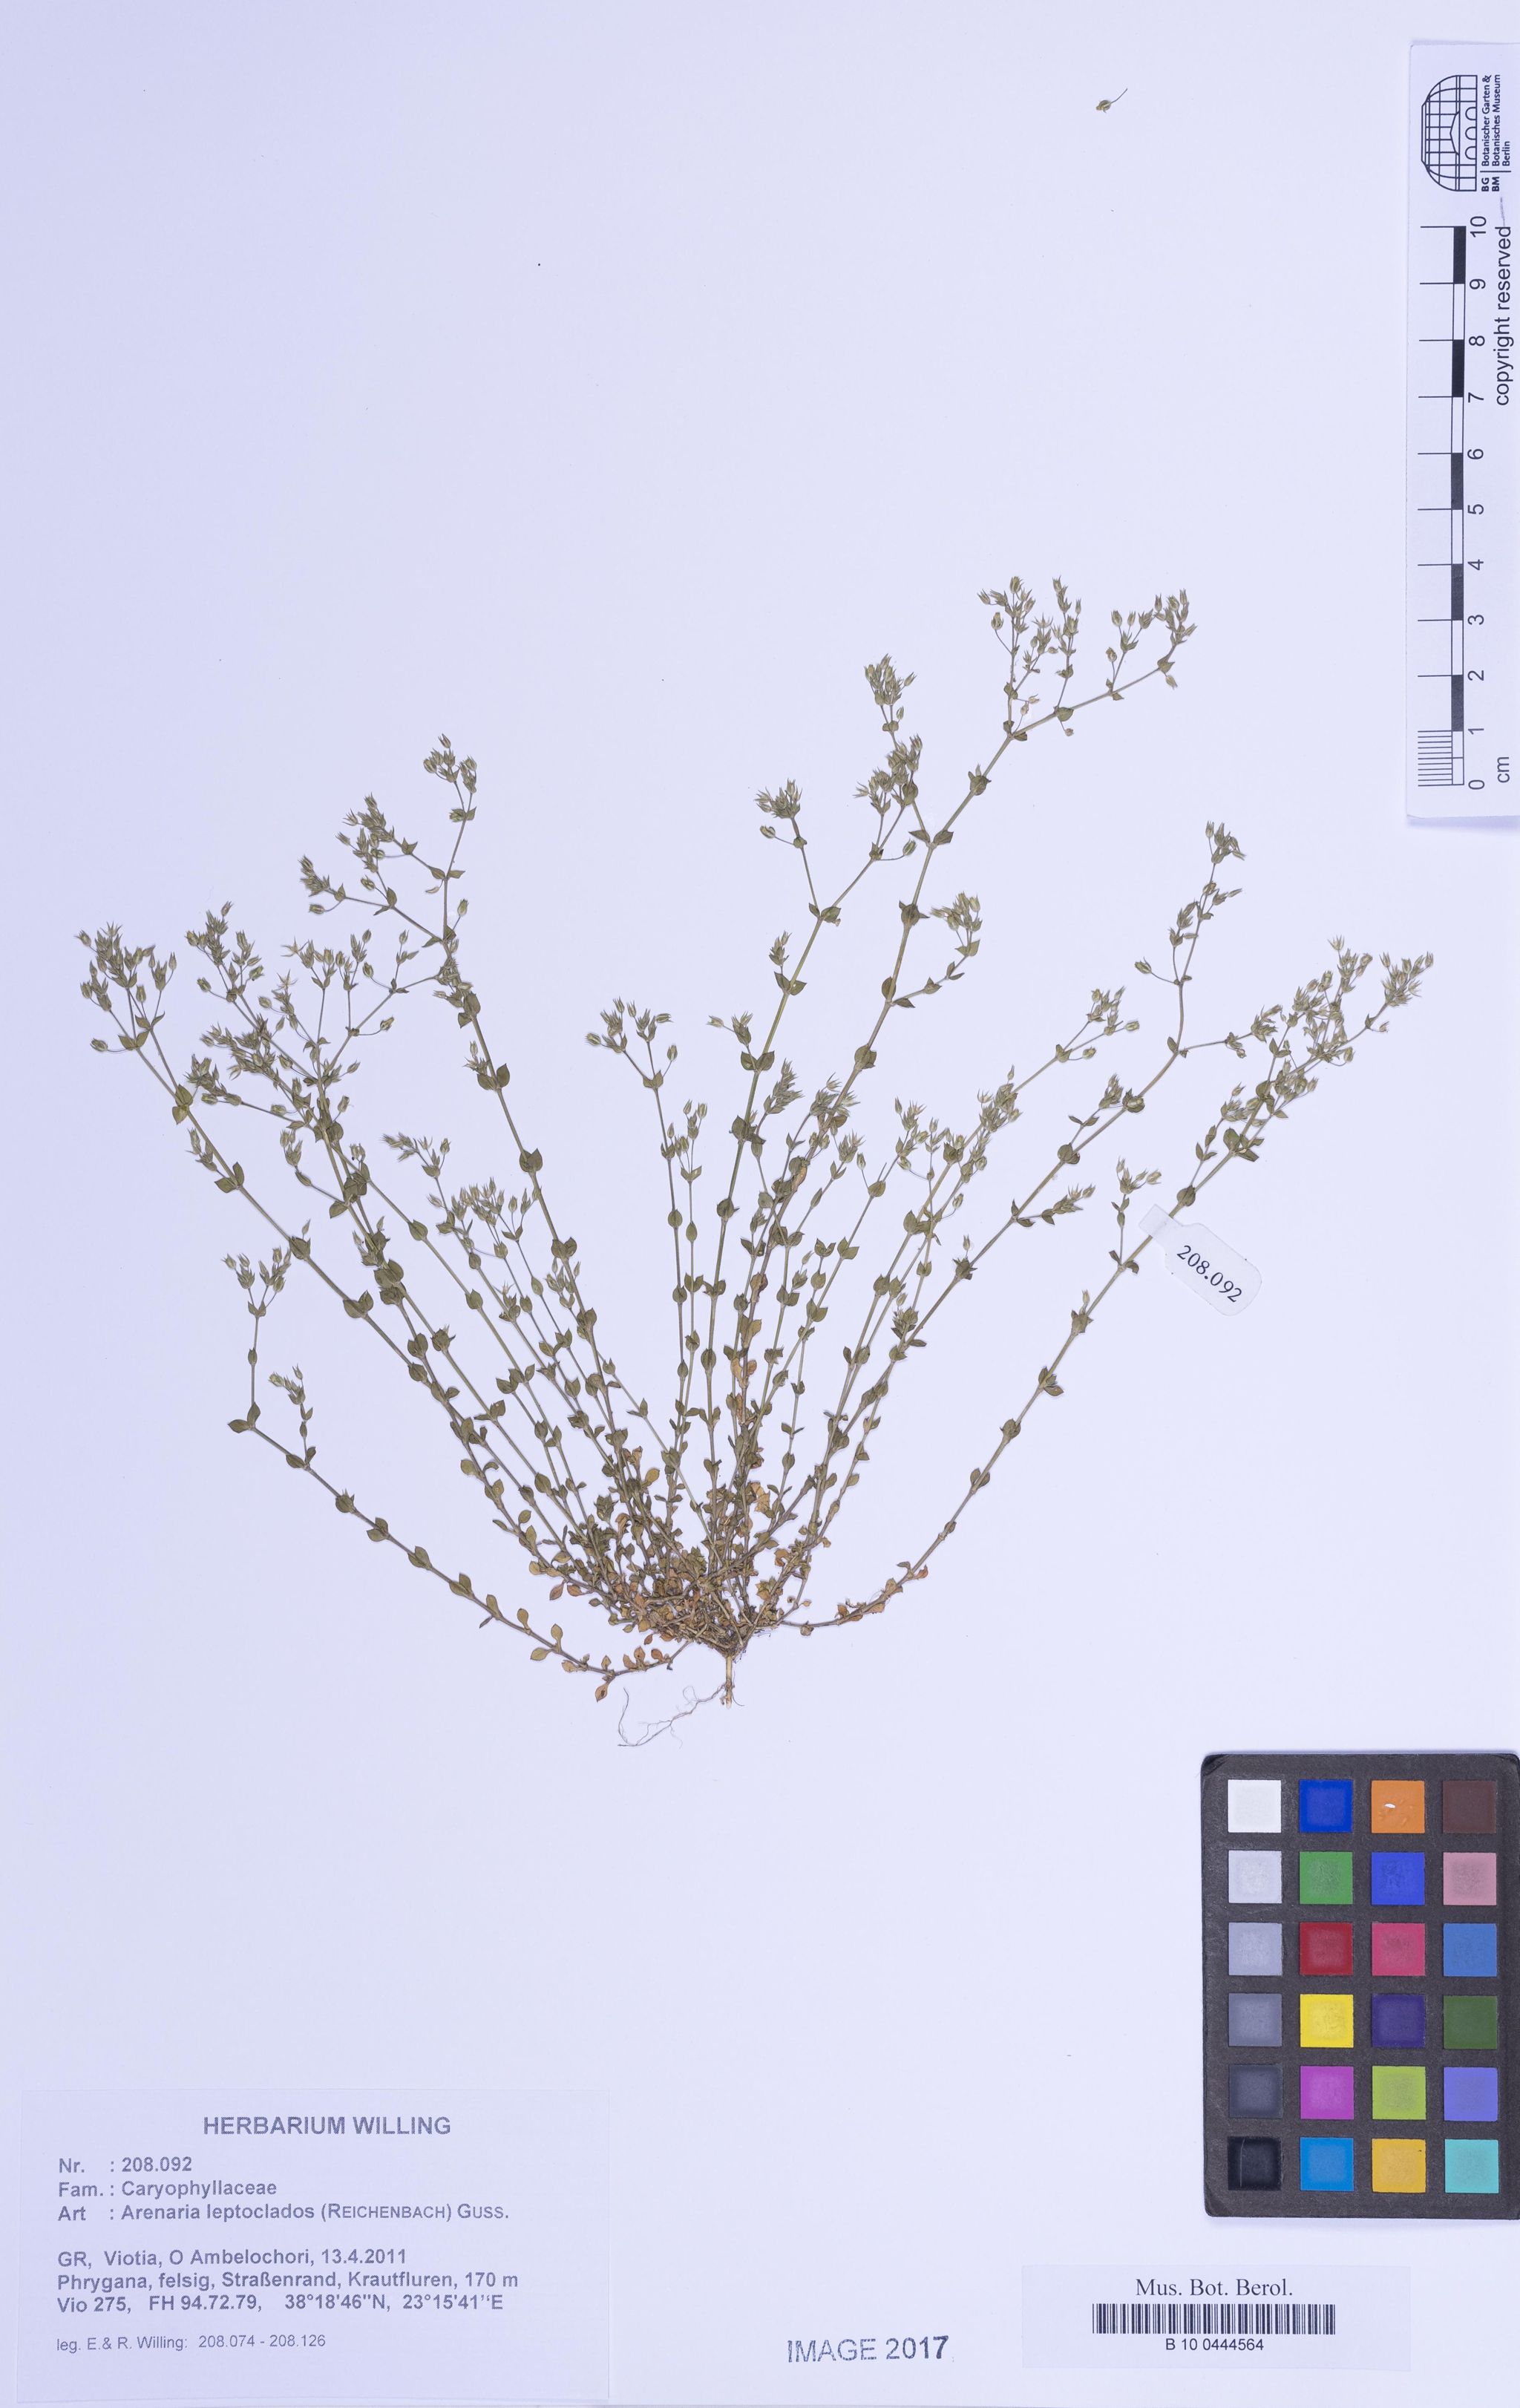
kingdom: Plantae
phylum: Tracheophyta
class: Magnoliopsida
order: Caryophyllales
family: Caryophyllaceae
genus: Arenaria
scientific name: Arenaria leptoclados
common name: Thyme-leaved sandwort
